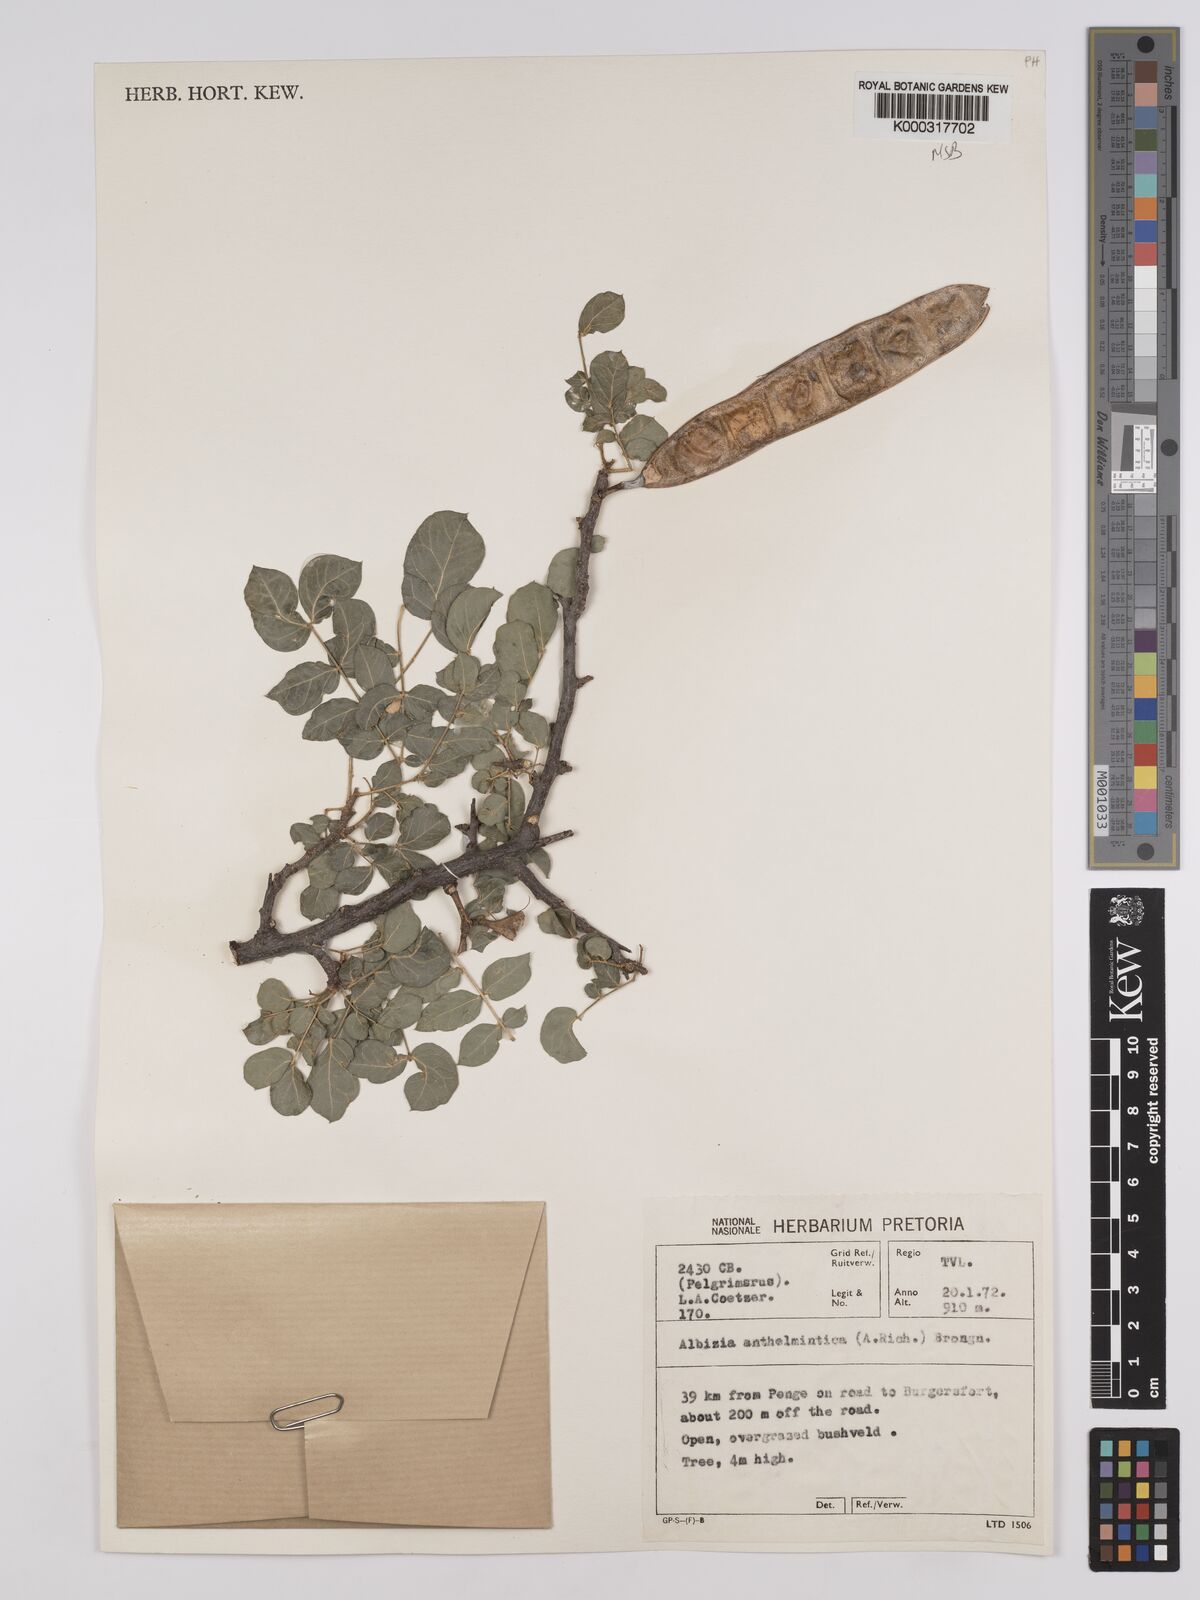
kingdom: Plantae
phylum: Tracheophyta
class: Magnoliopsida
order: Fabales
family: Fabaceae
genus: Albizia
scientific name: Albizia anthelmintica
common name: Worm-bark false-thorn
